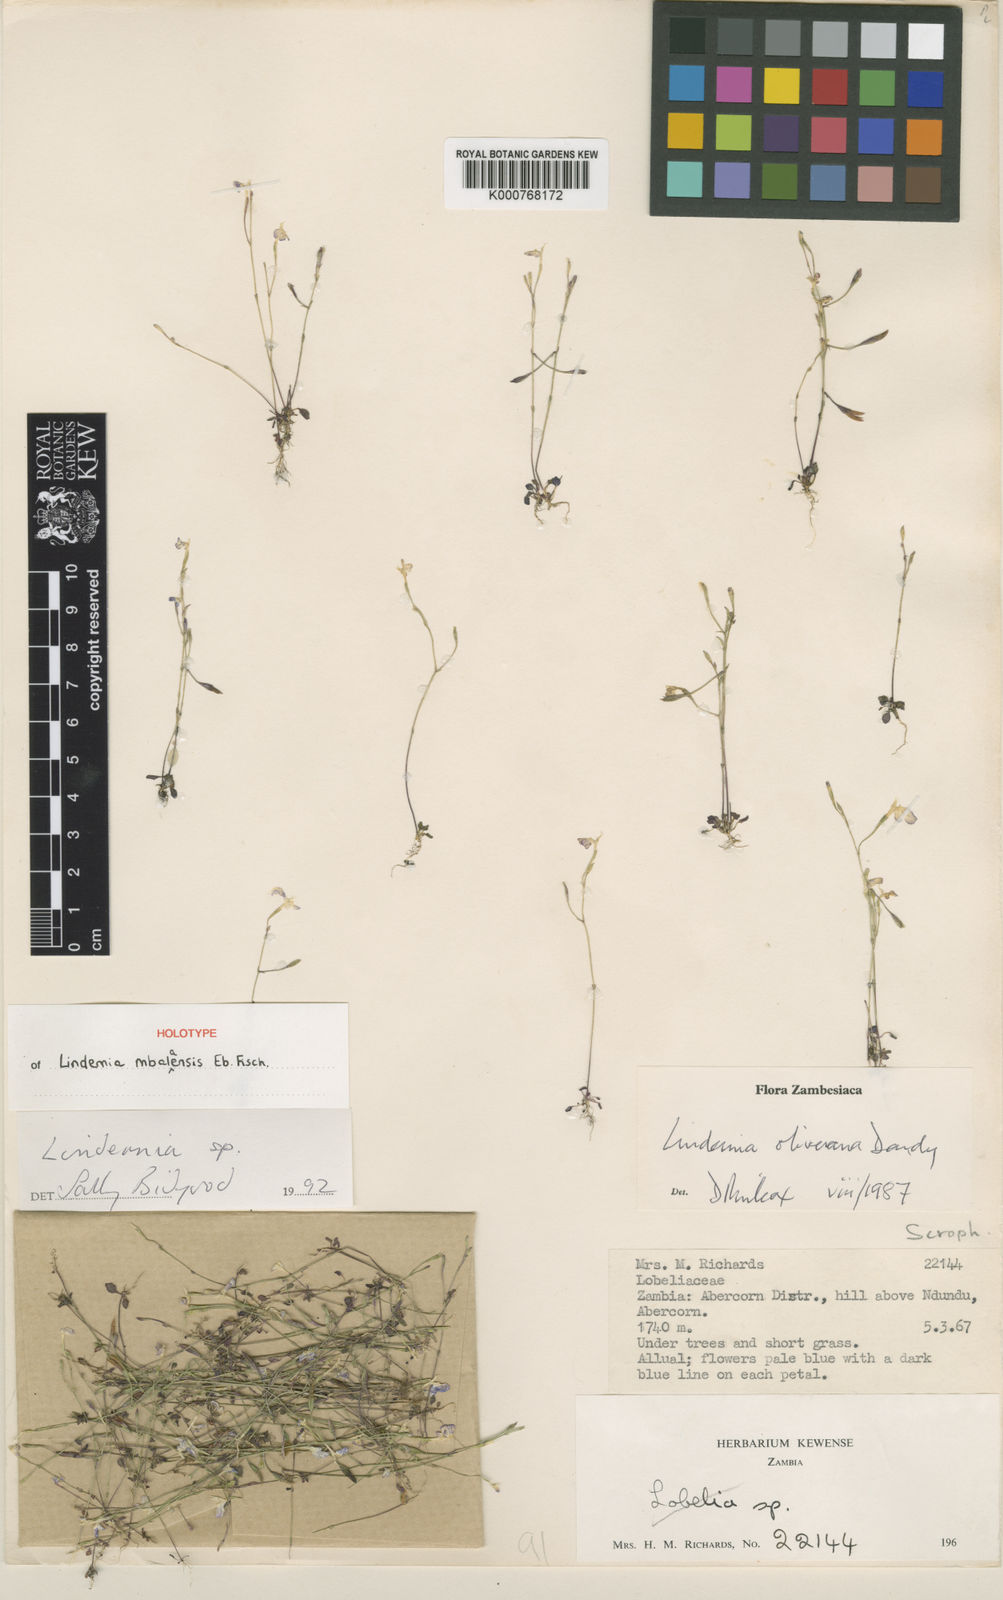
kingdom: Plantae
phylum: Tracheophyta
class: Magnoliopsida
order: Lamiales
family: Linderniaceae
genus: Linderniella
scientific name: Linderniella mbalaensis
